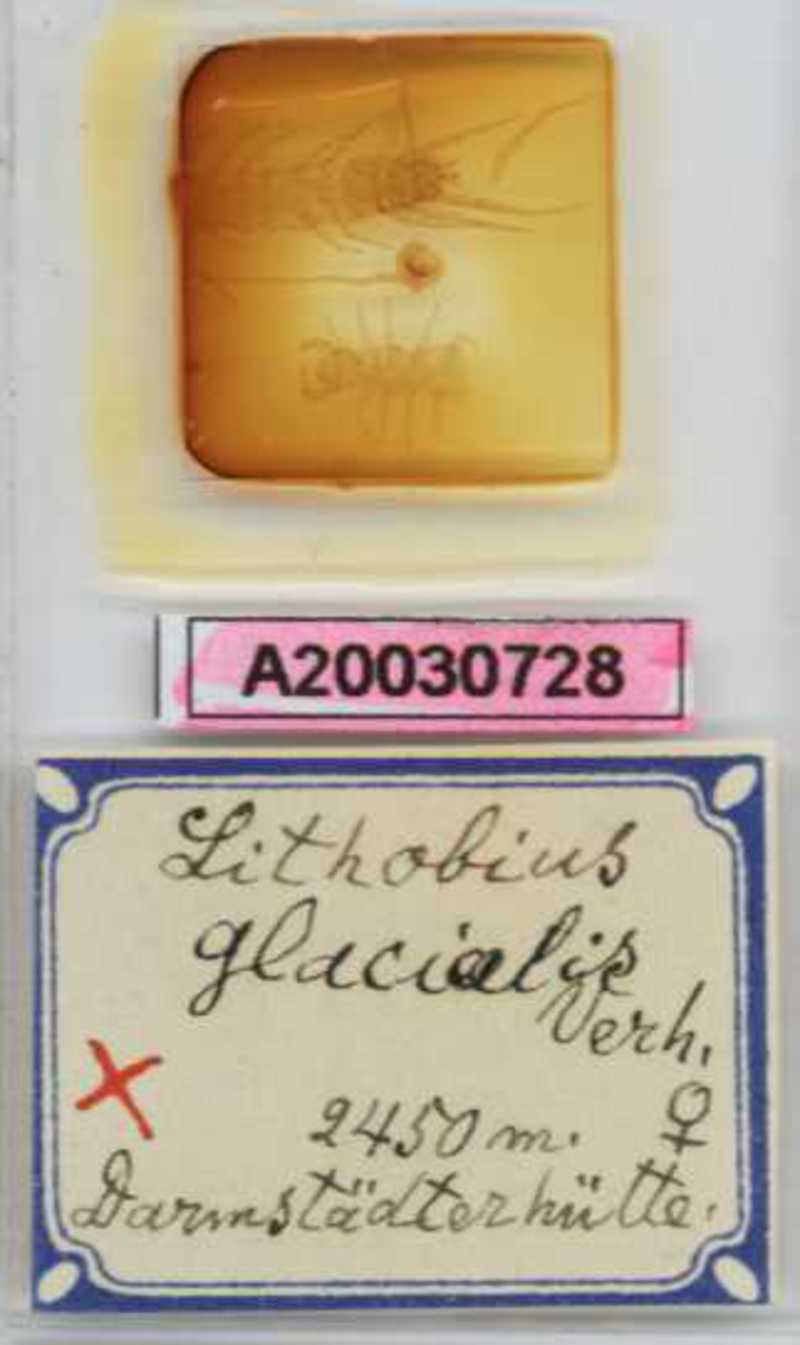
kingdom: Animalia
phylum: Arthropoda
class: Chilopoda
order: Lithobiomorpha
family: Lithobiidae
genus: Lithobius
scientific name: Lithobius glacialis
